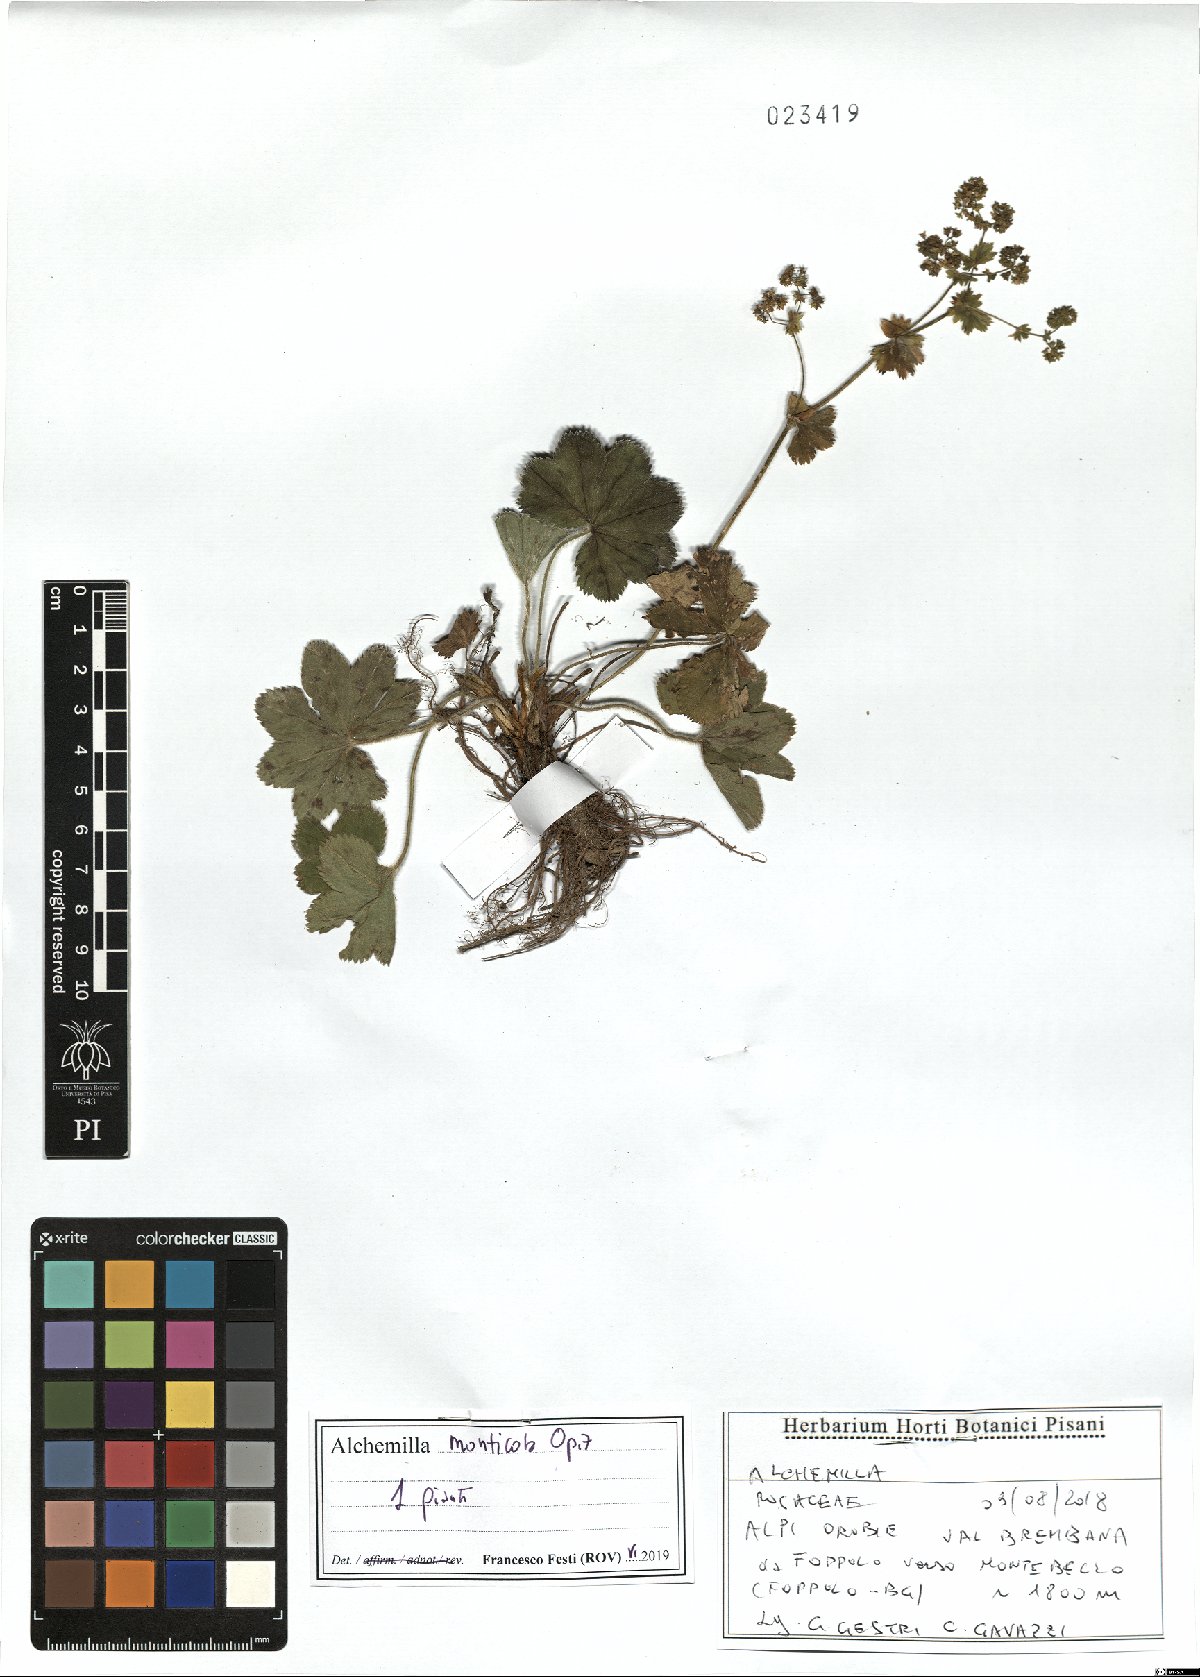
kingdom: Plantae
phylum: Tracheophyta
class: Magnoliopsida
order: Rosales
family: Rosaceae
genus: Alchemilla
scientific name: Alchemilla monticola
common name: Hairy lady's mantle
